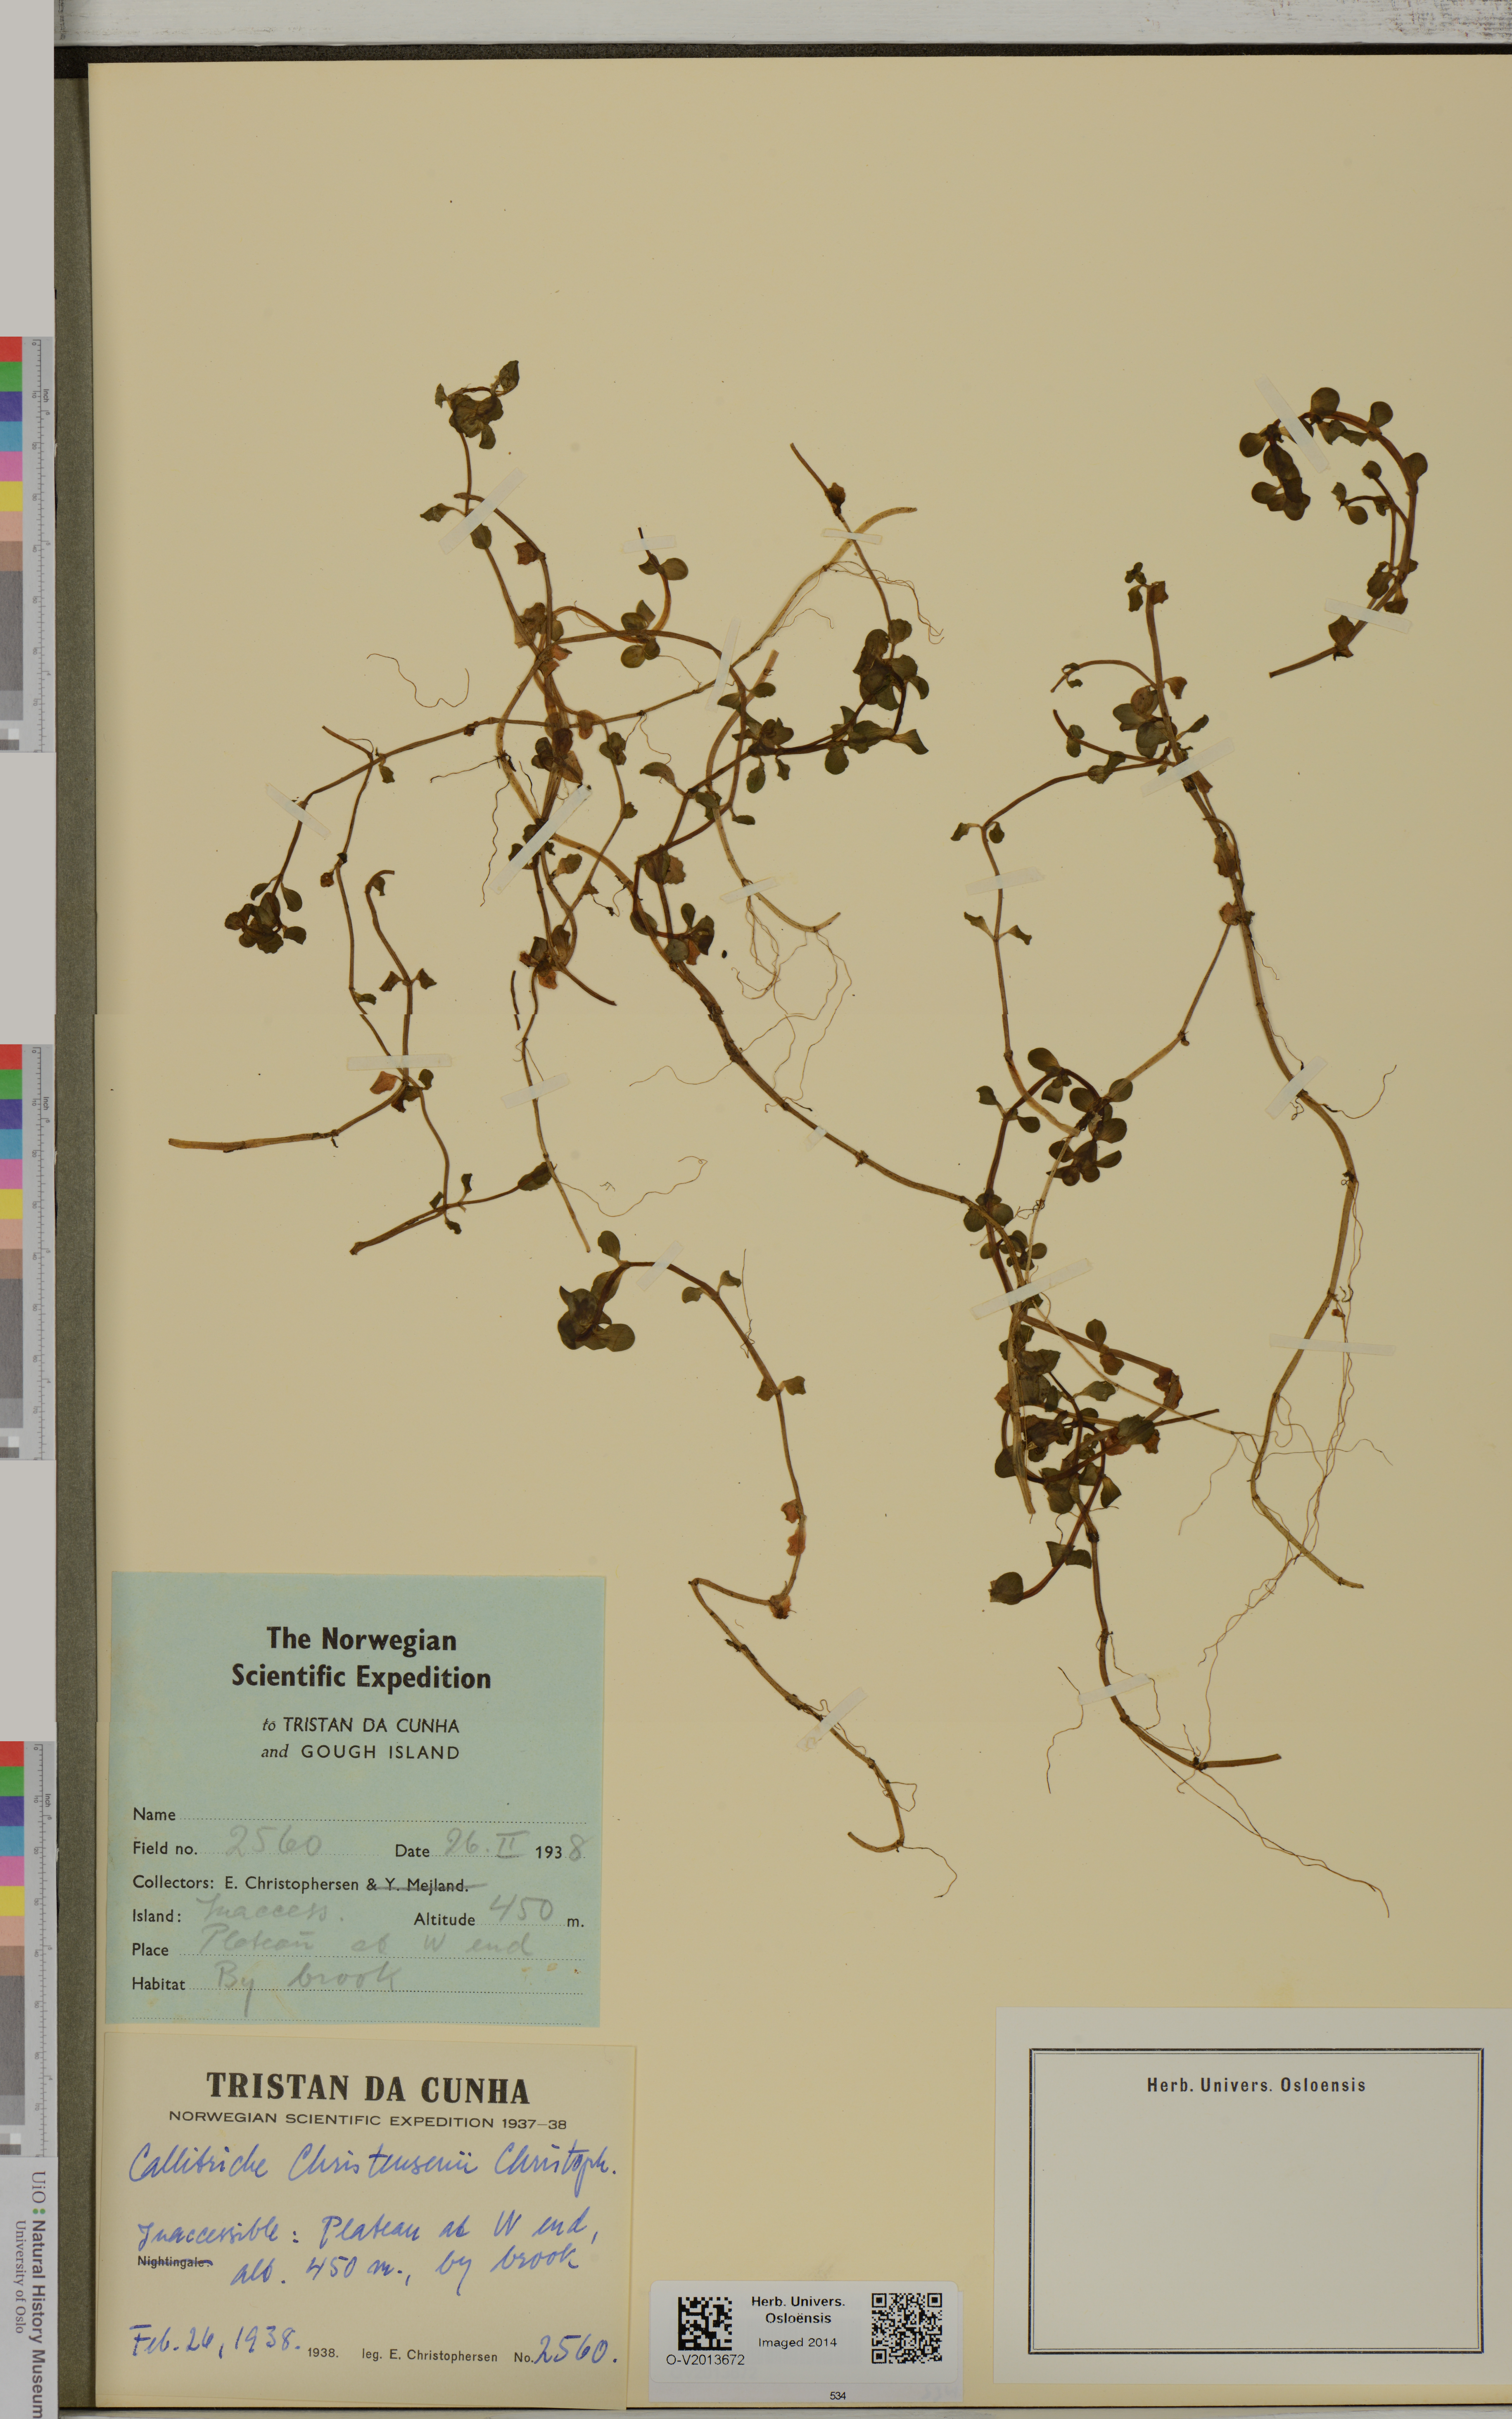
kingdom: Plantae
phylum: Tracheophyta
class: Magnoliopsida
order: Lamiales
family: Plantaginaceae
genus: Callitriche
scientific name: Callitriche christensenii
